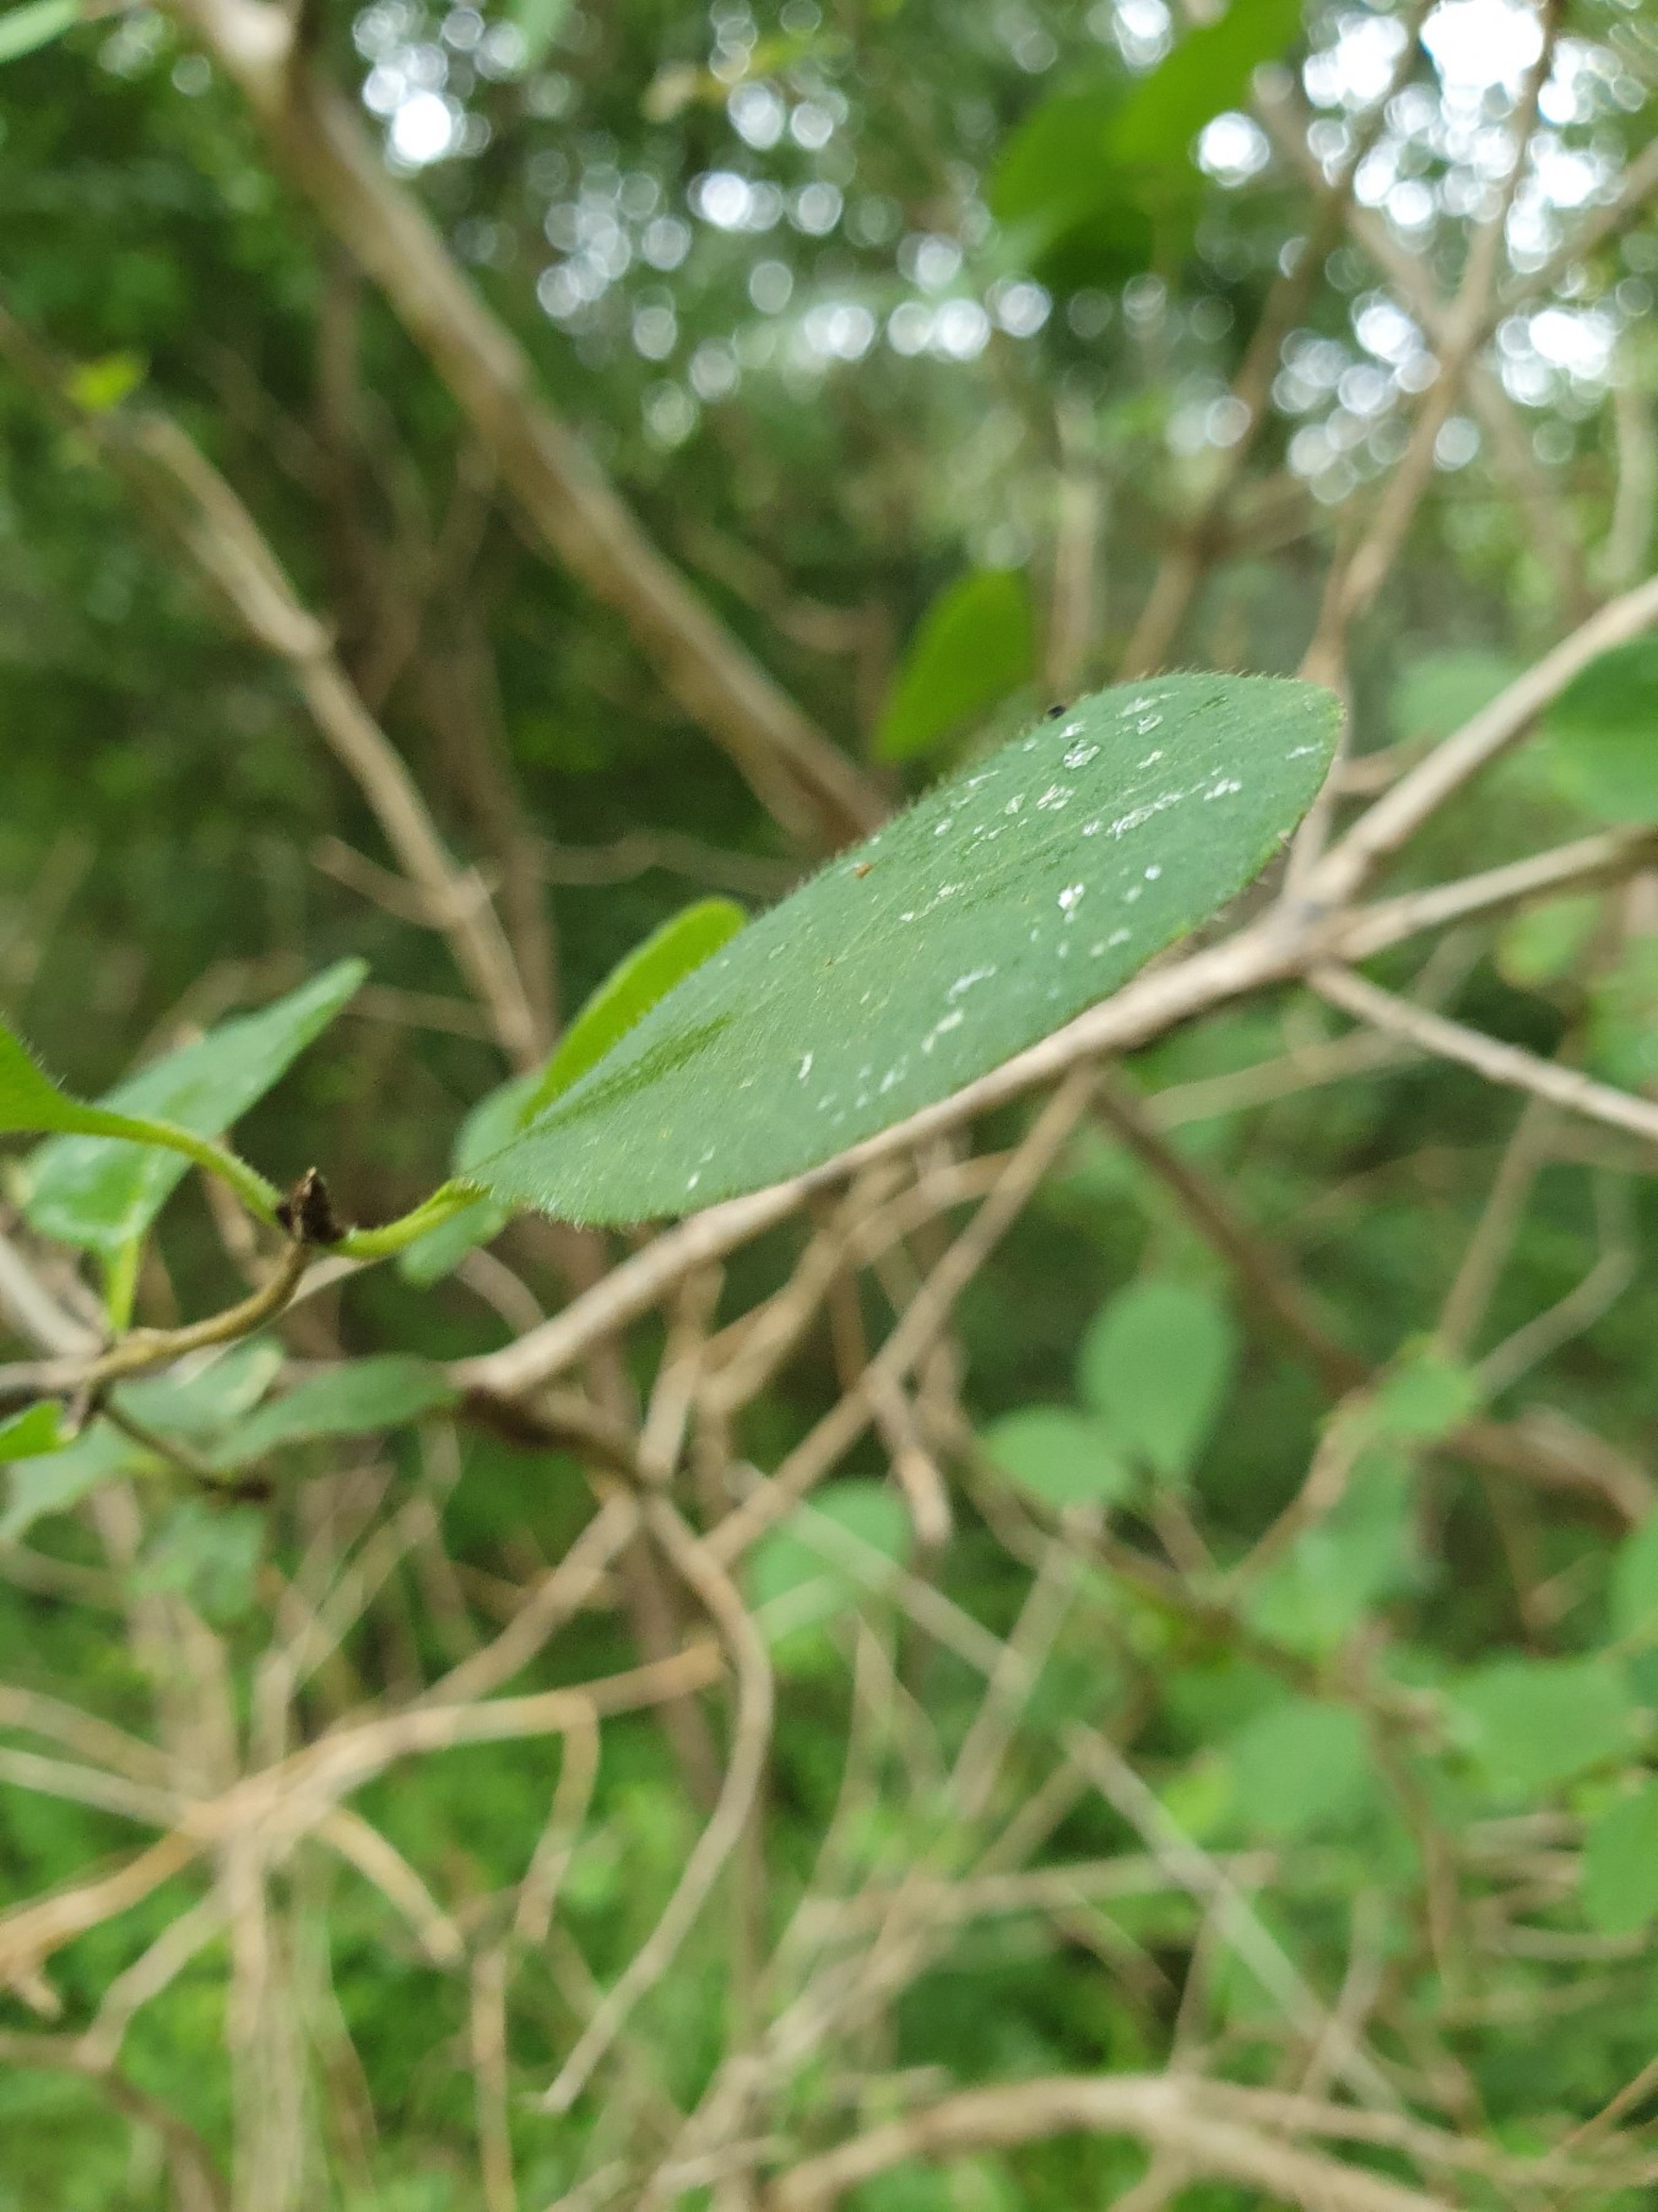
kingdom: Plantae
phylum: Tracheophyta
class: Magnoliopsida
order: Dipsacales
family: Caprifoliaceae
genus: Lonicera
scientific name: Lonicera xylosteum
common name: Dunet gedeblad
